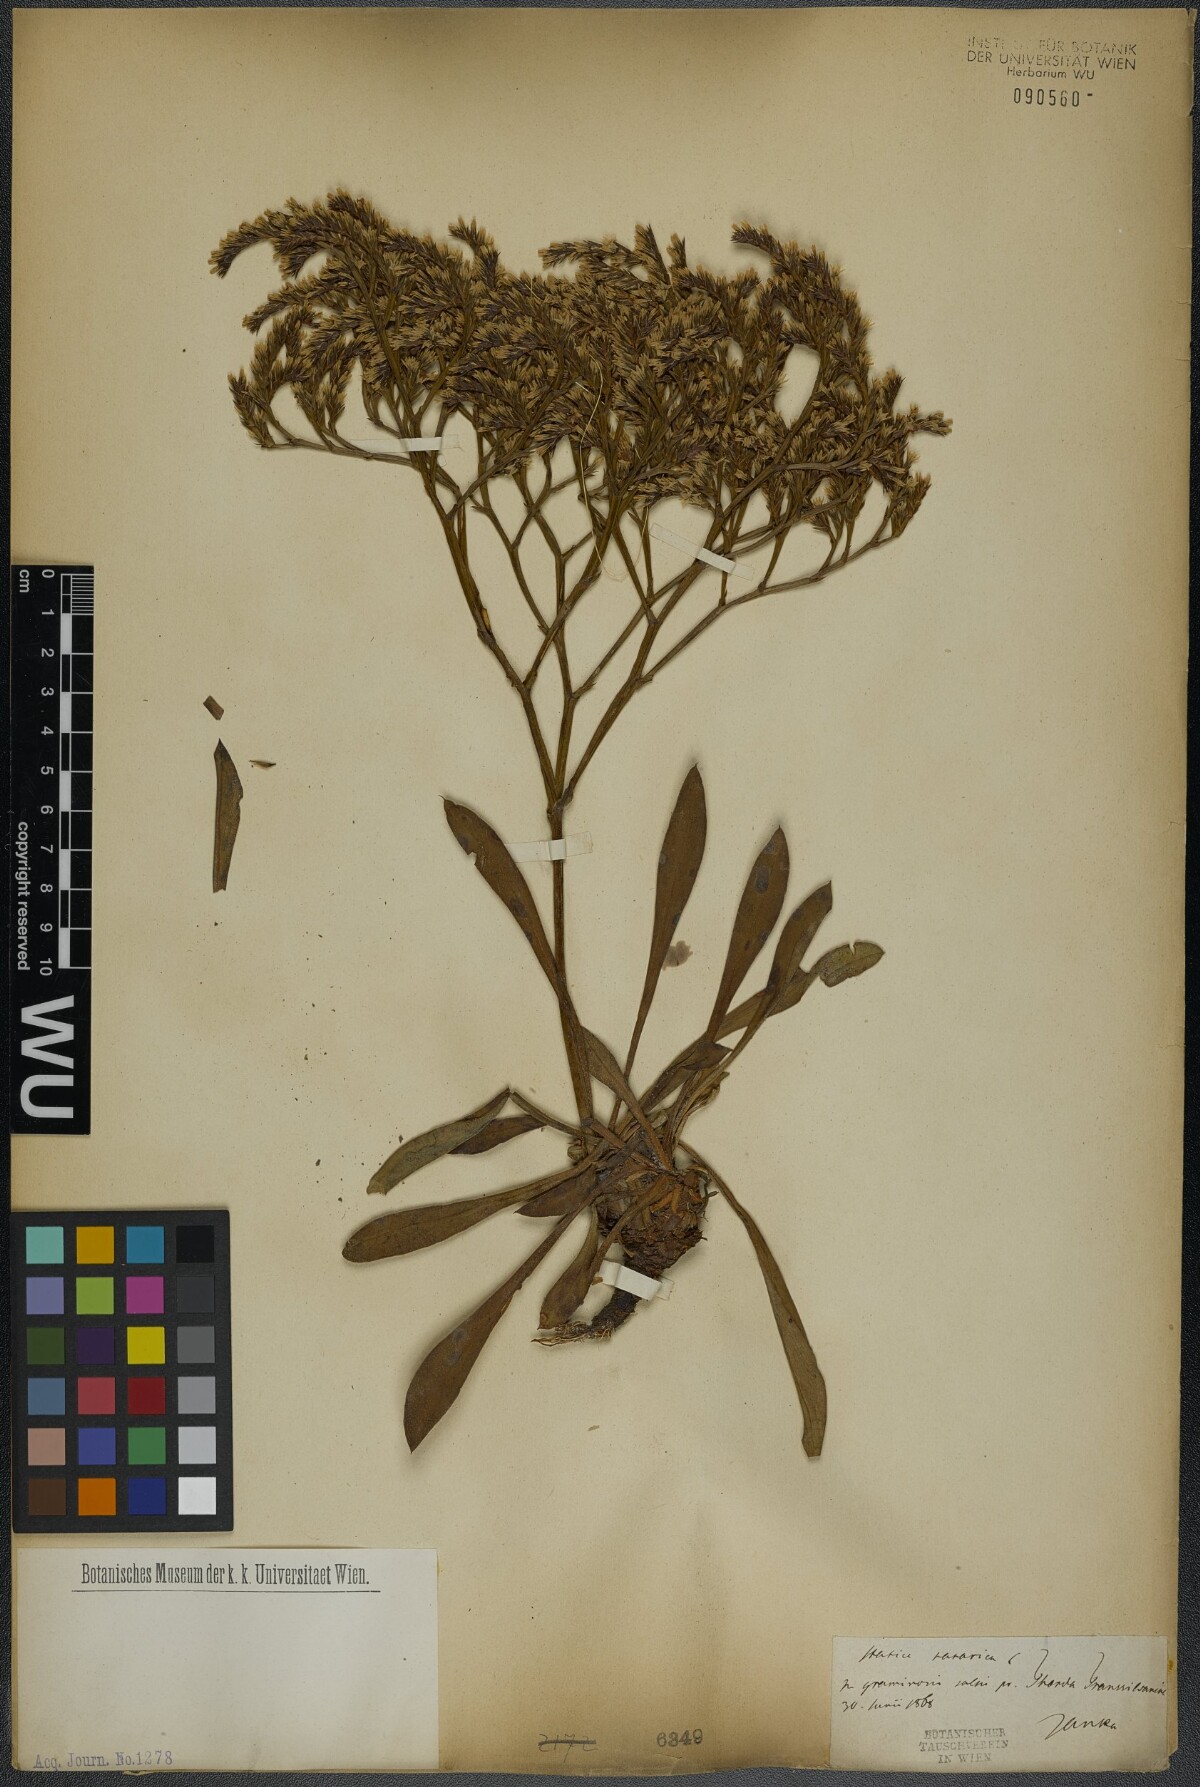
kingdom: Plantae
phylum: Tracheophyta
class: Magnoliopsida
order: Caryophyllales
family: Plumbaginaceae
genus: Goniolimon
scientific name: Goniolimon tataricum
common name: Statice
